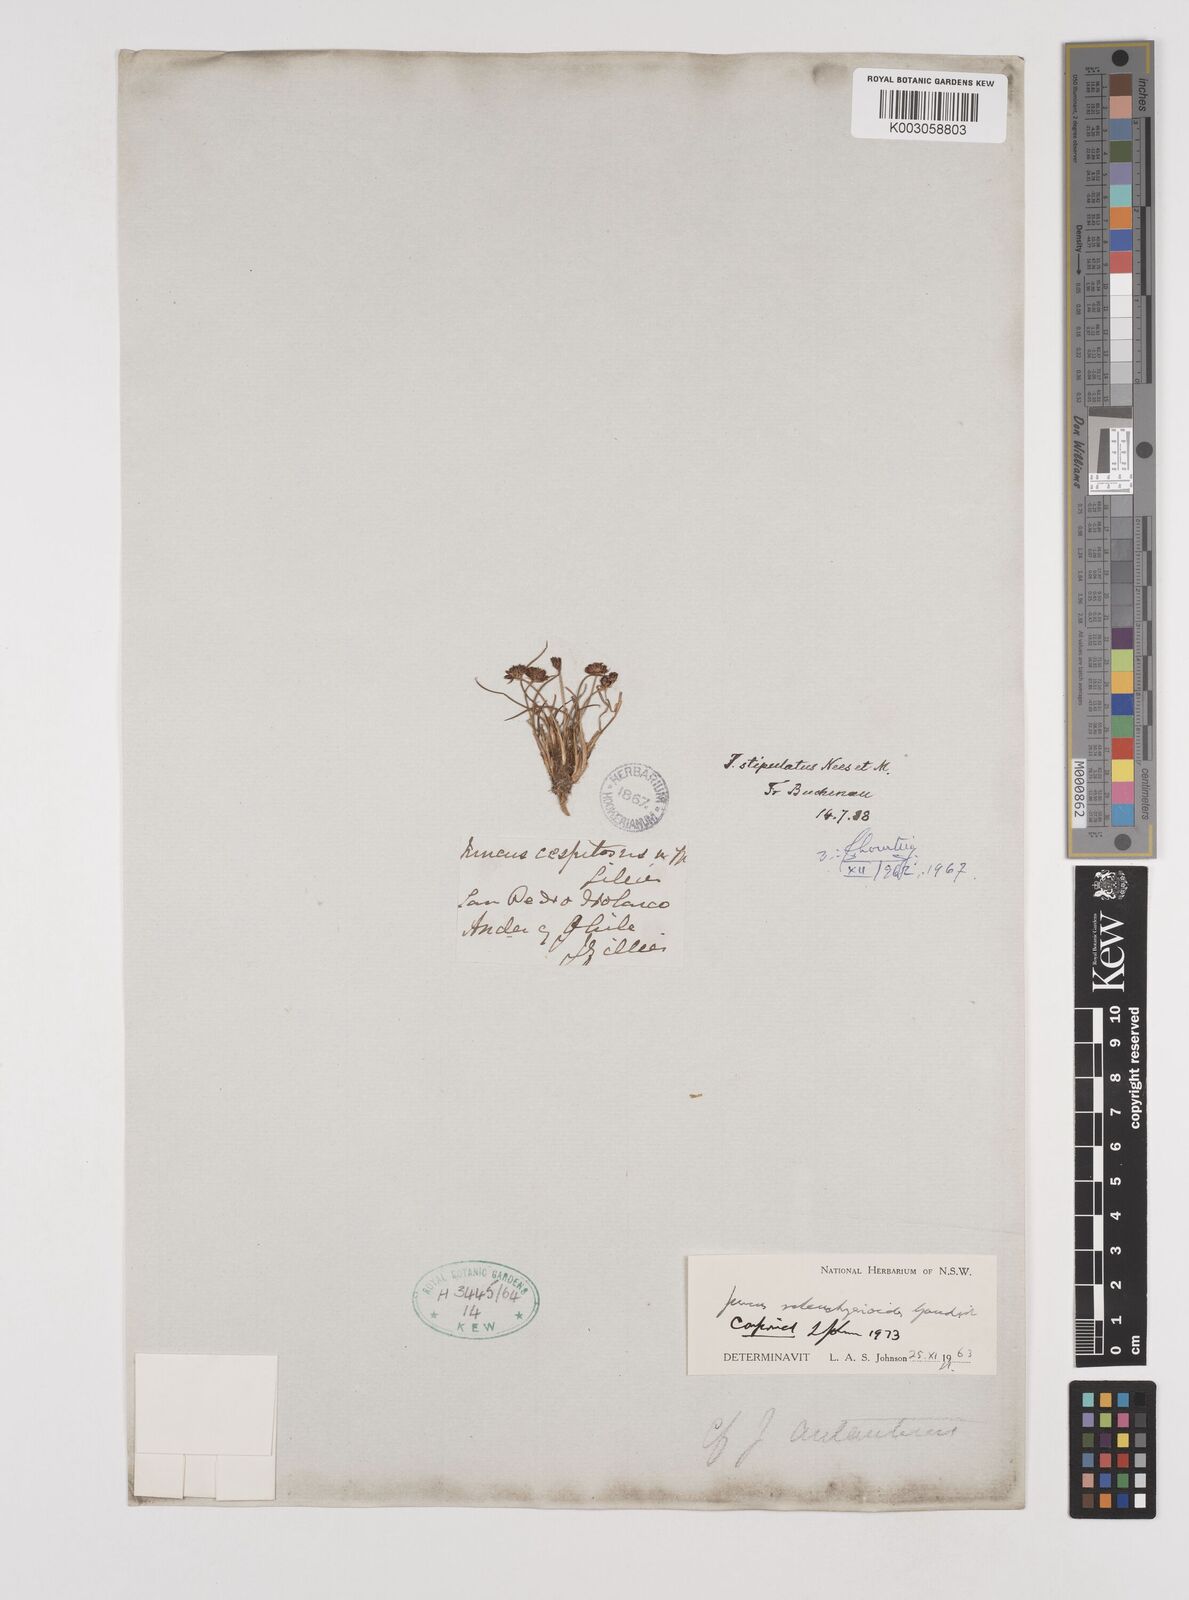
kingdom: Plantae
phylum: Tracheophyta
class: Liliopsida
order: Poales
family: Juncaceae
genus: Juncus
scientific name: Juncus scheuchzerioides
